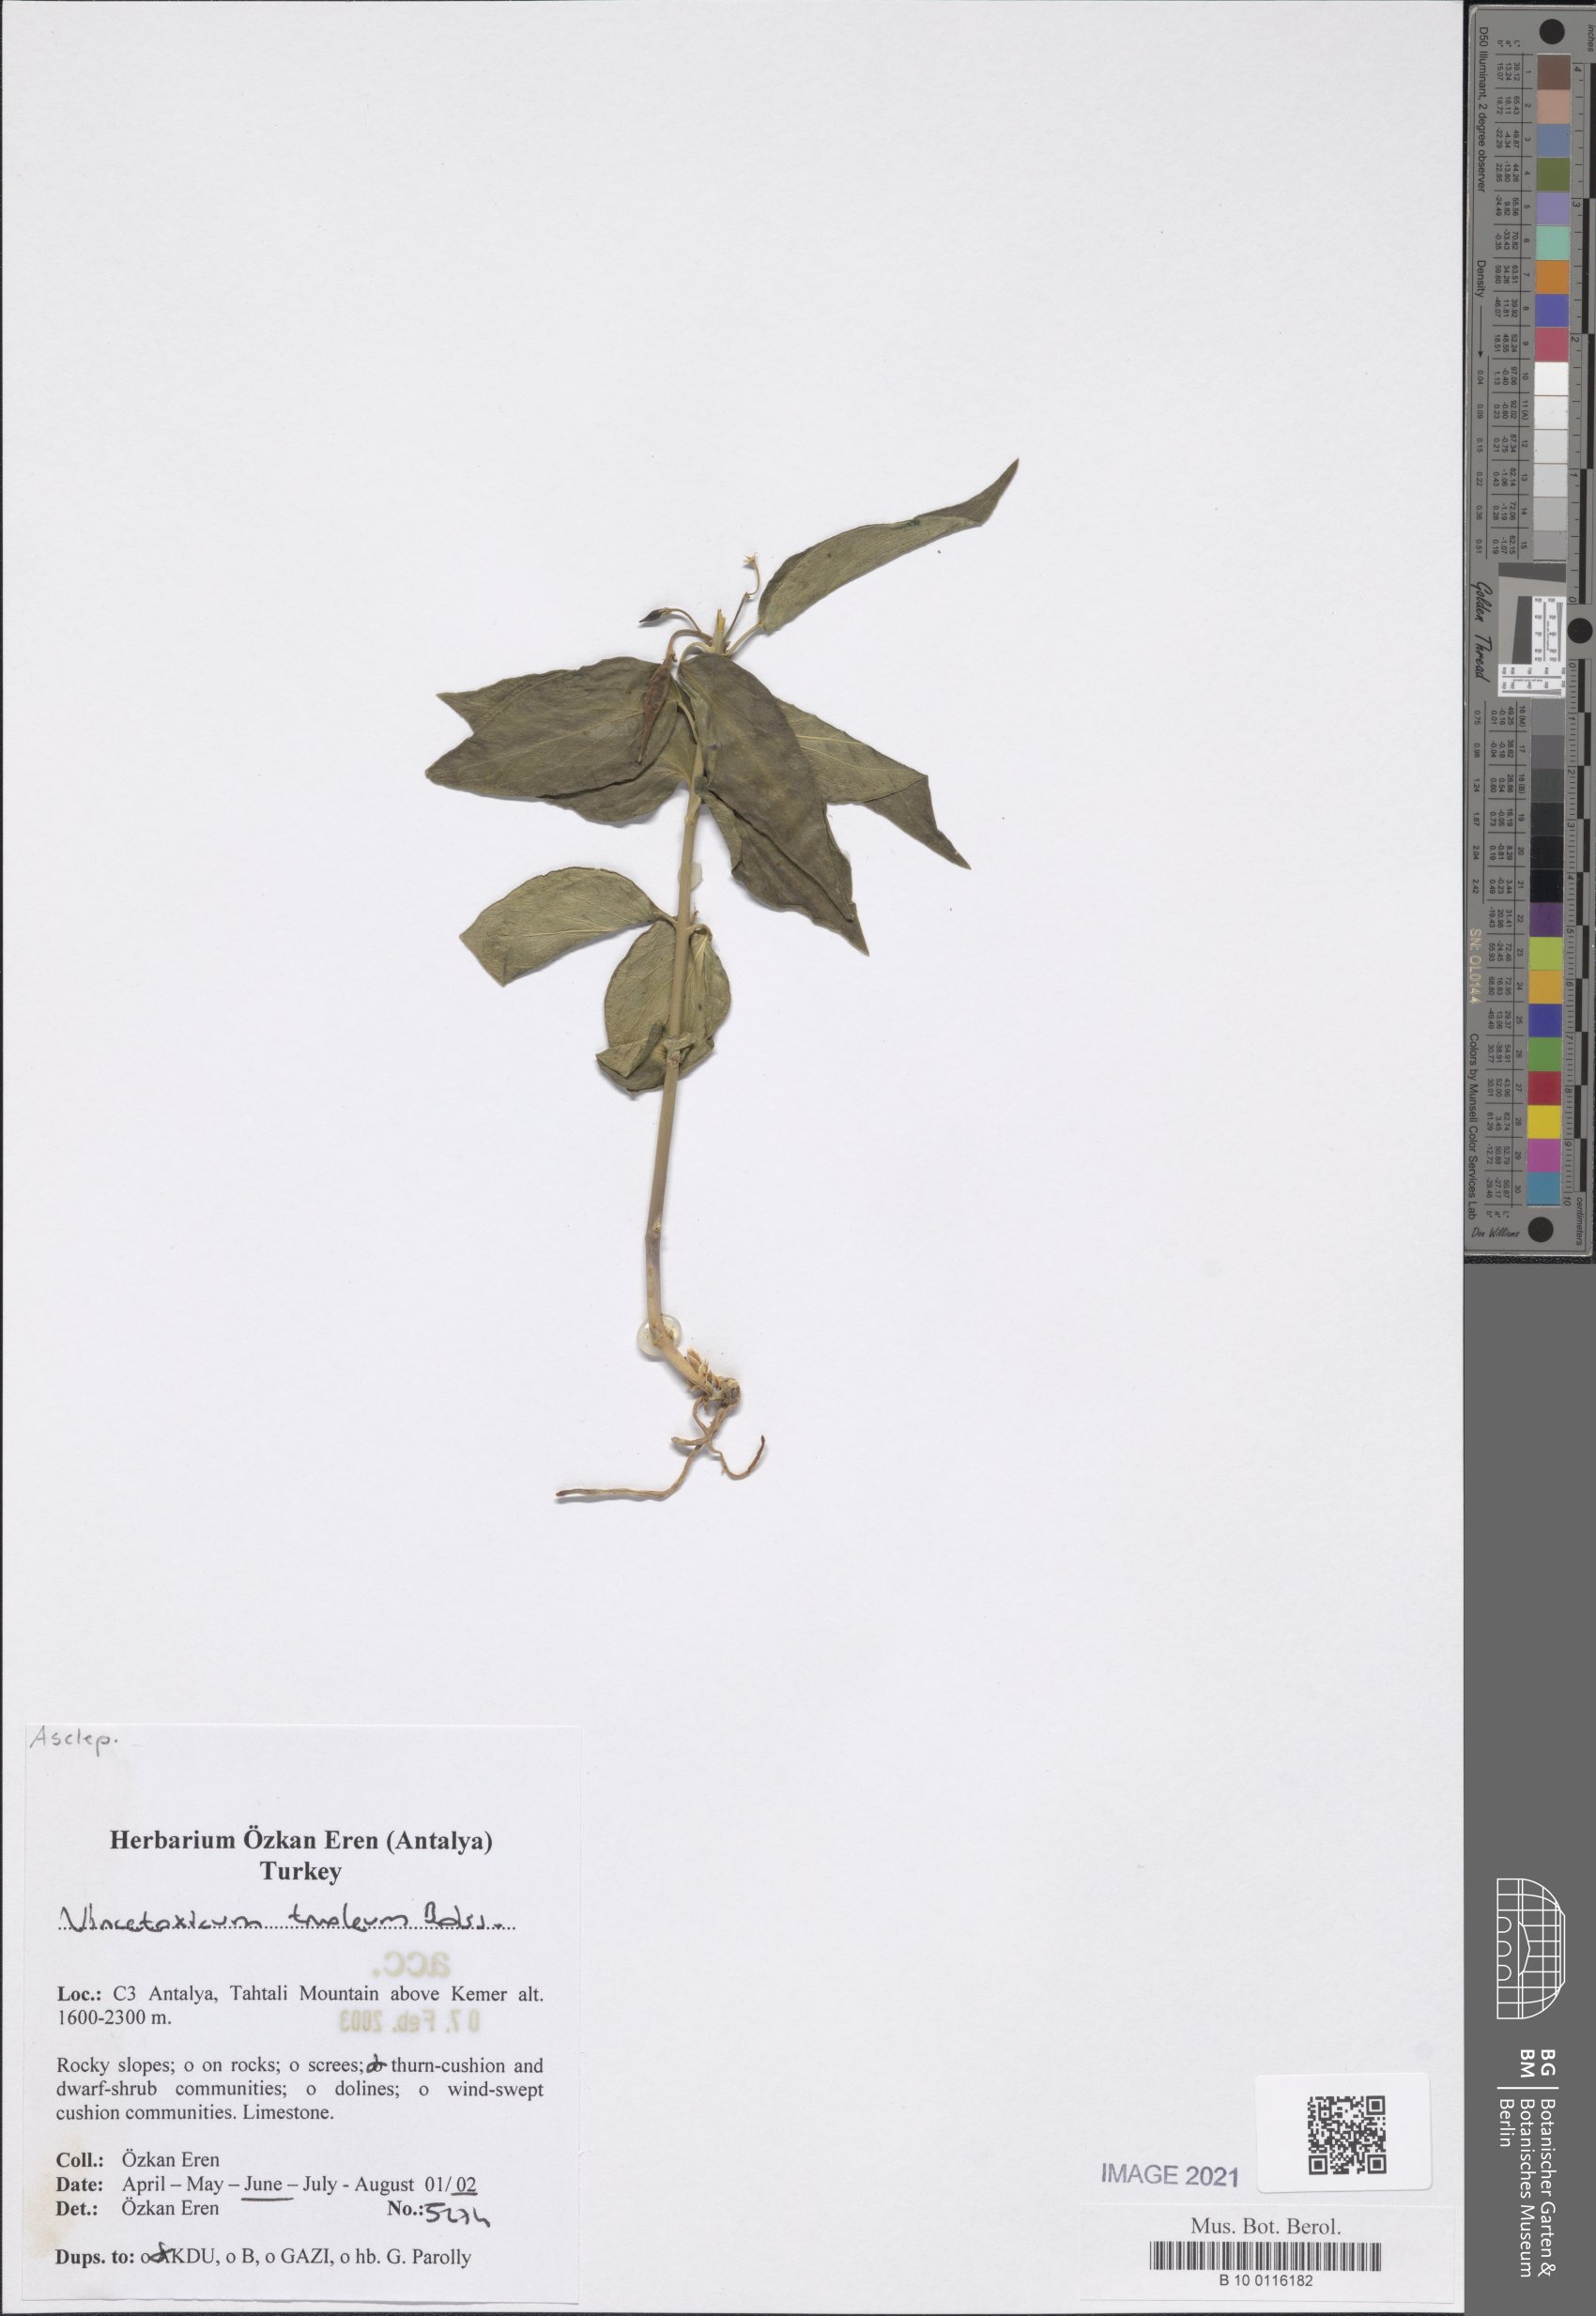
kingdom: Plantae
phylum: Tracheophyta
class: Magnoliopsida
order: Gentianales
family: Apocynaceae
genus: Vincetoxicum
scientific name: Vincetoxicum tmoleum
